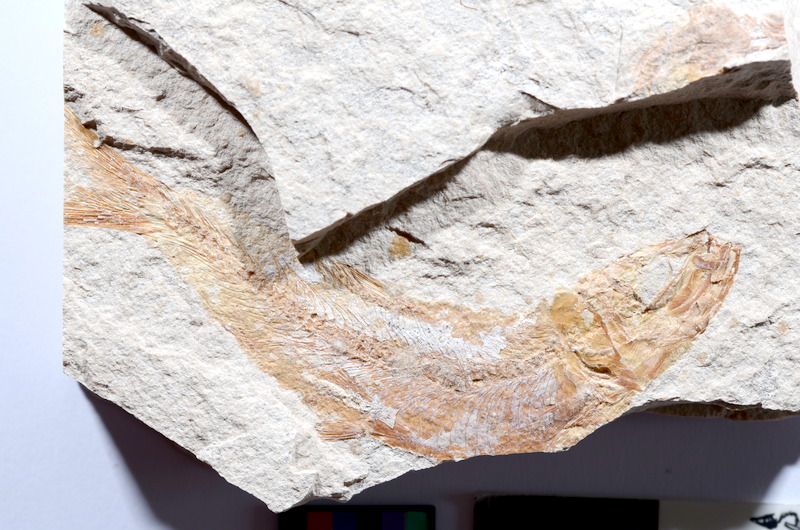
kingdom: Animalia
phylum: Chordata
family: Ascalaboidae
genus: Tharsis
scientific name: Tharsis dubius
